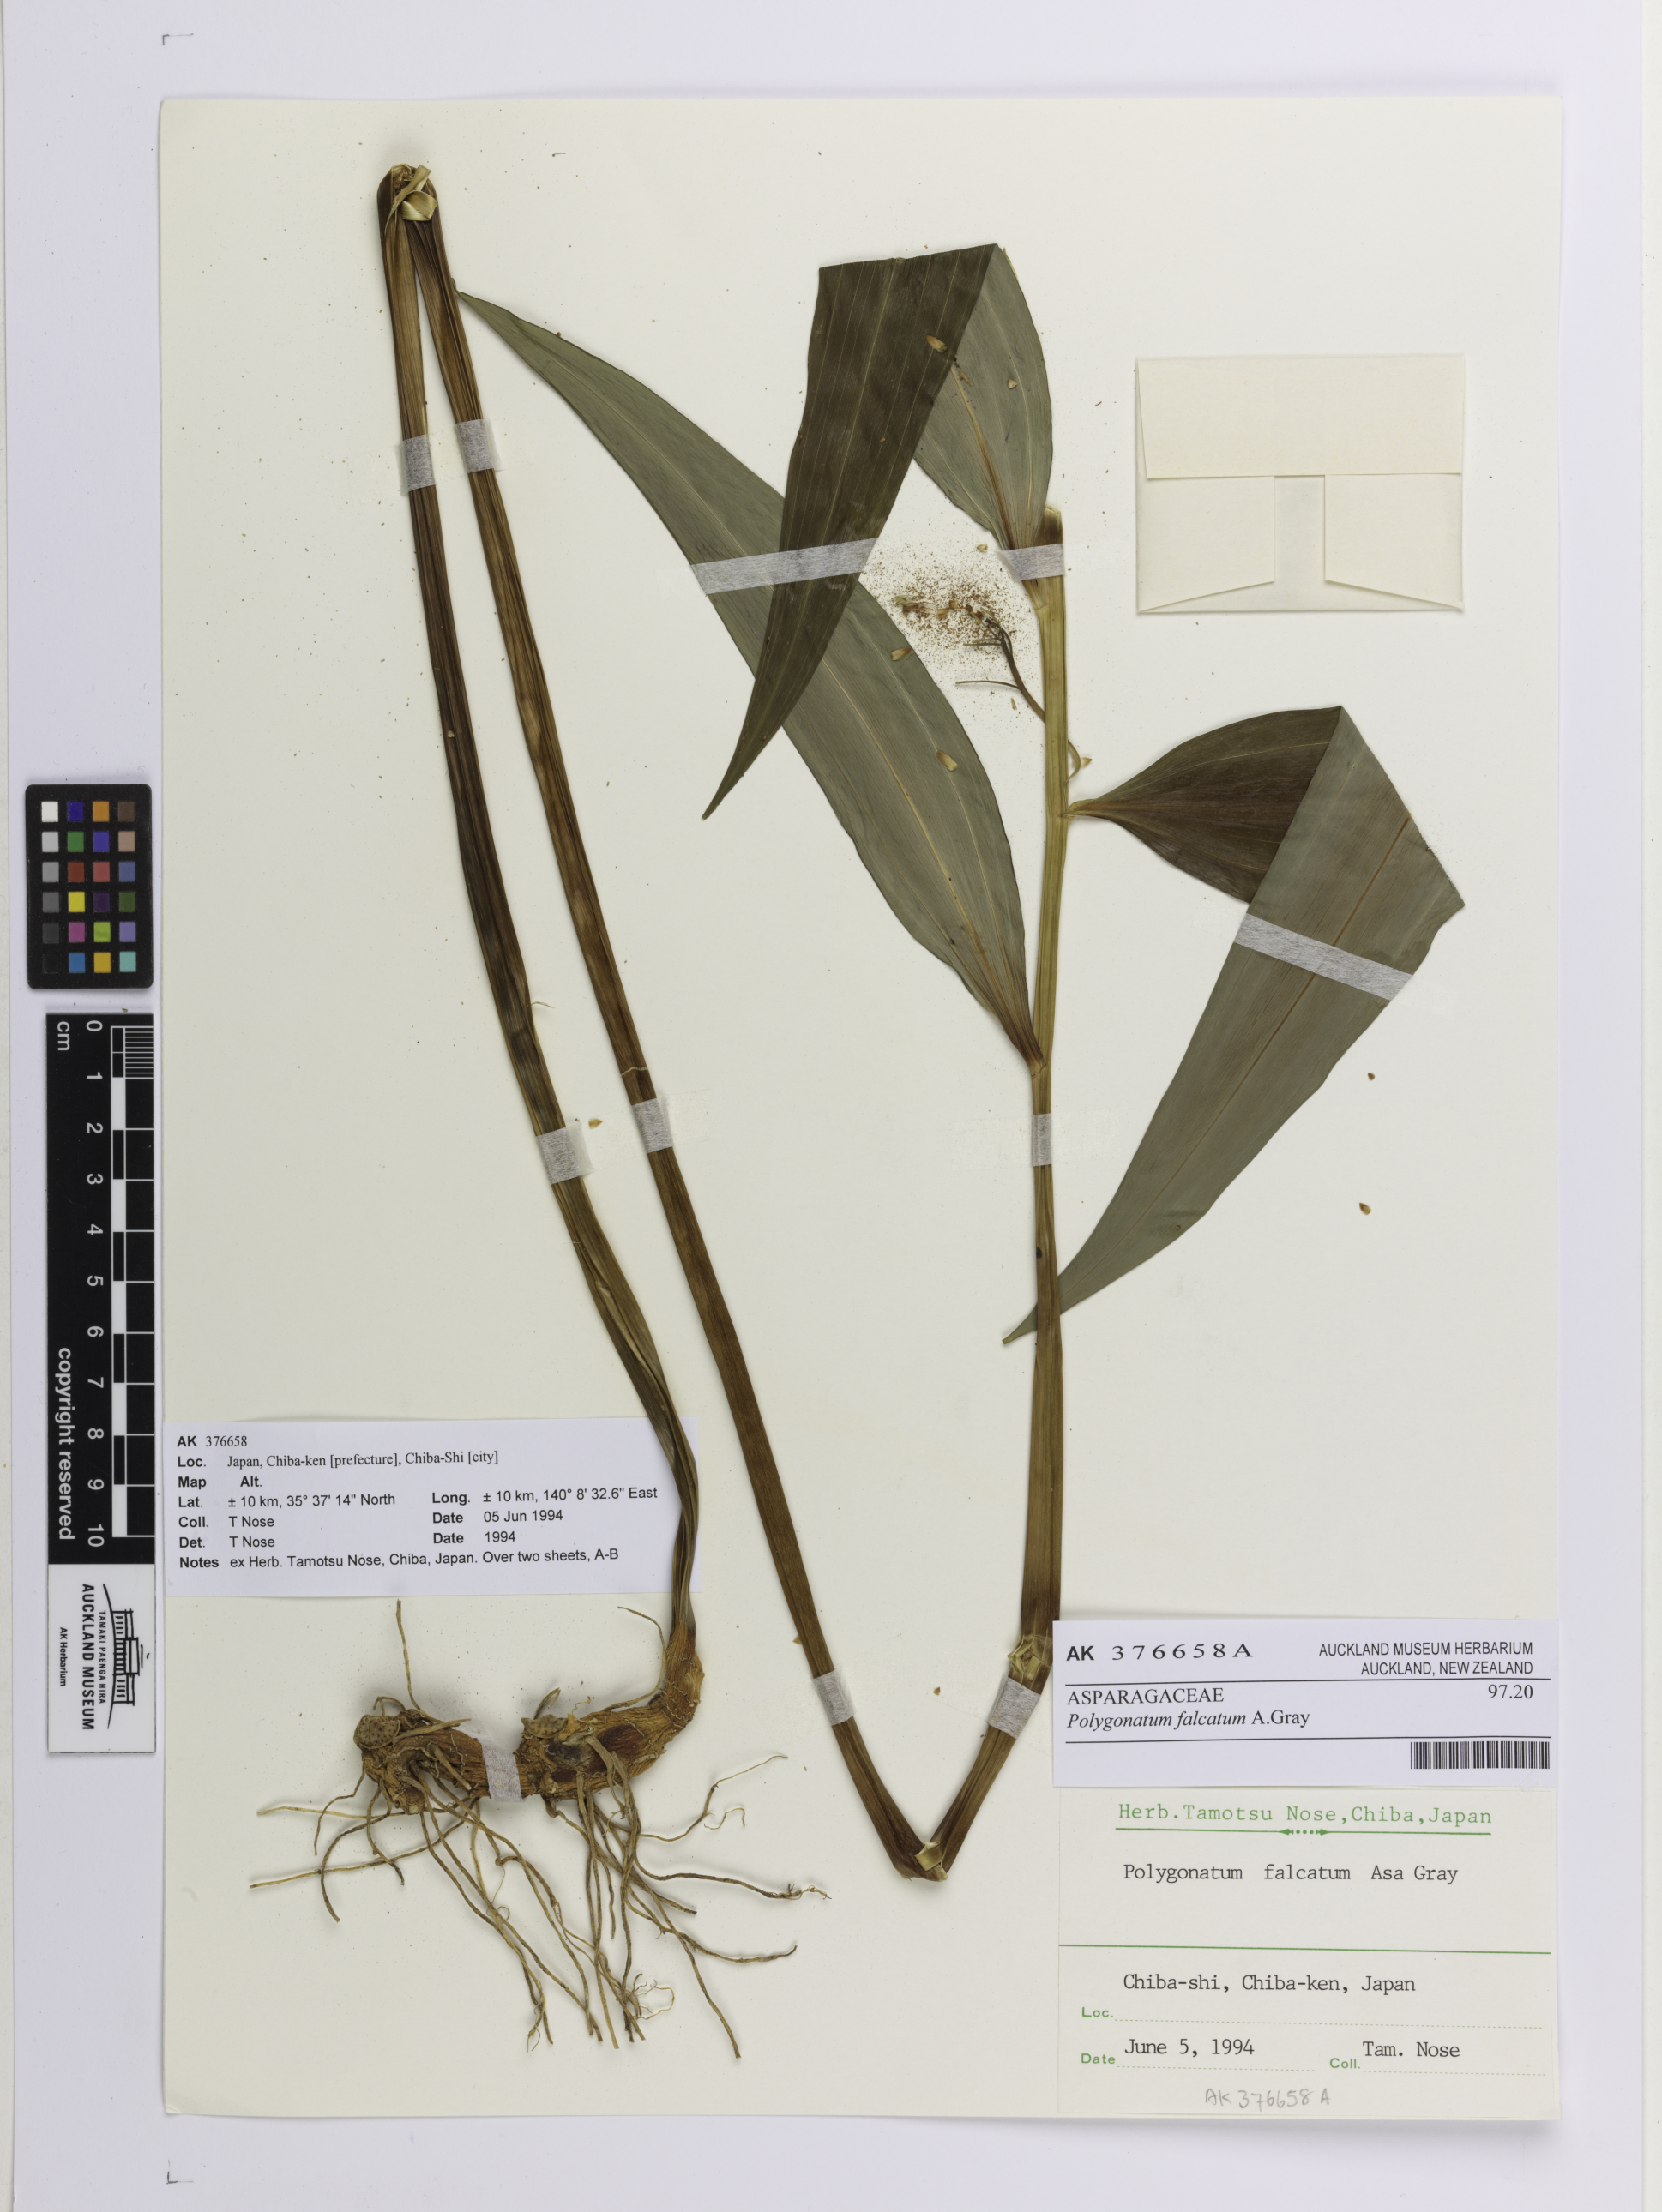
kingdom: Plantae
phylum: Tracheophyta
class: Liliopsida
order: Asparagales
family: Asparagaceae
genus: Polygonatum
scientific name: Polygonatum falcatum
